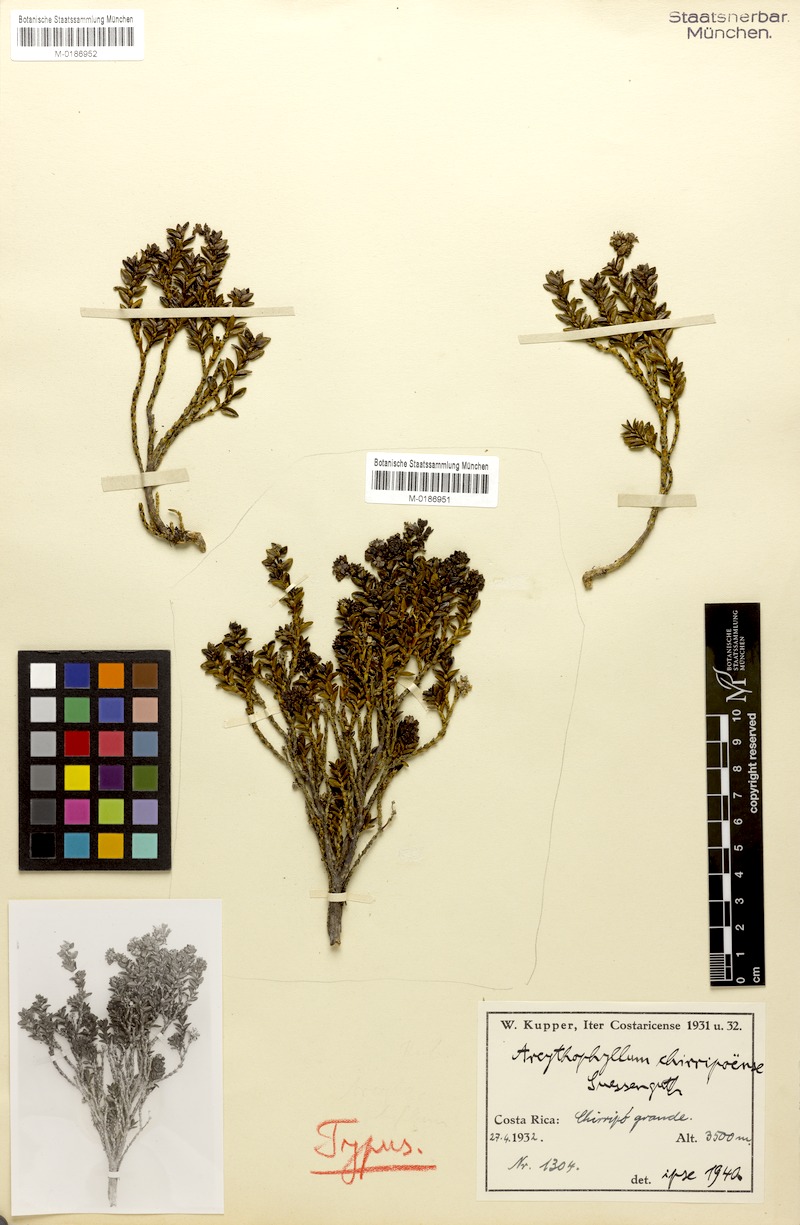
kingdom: Plantae
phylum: Tracheophyta
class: Magnoliopsida
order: Gentianales
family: Rubiaceae
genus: Arcytophyllum
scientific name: Arcytophyllum lavarum
